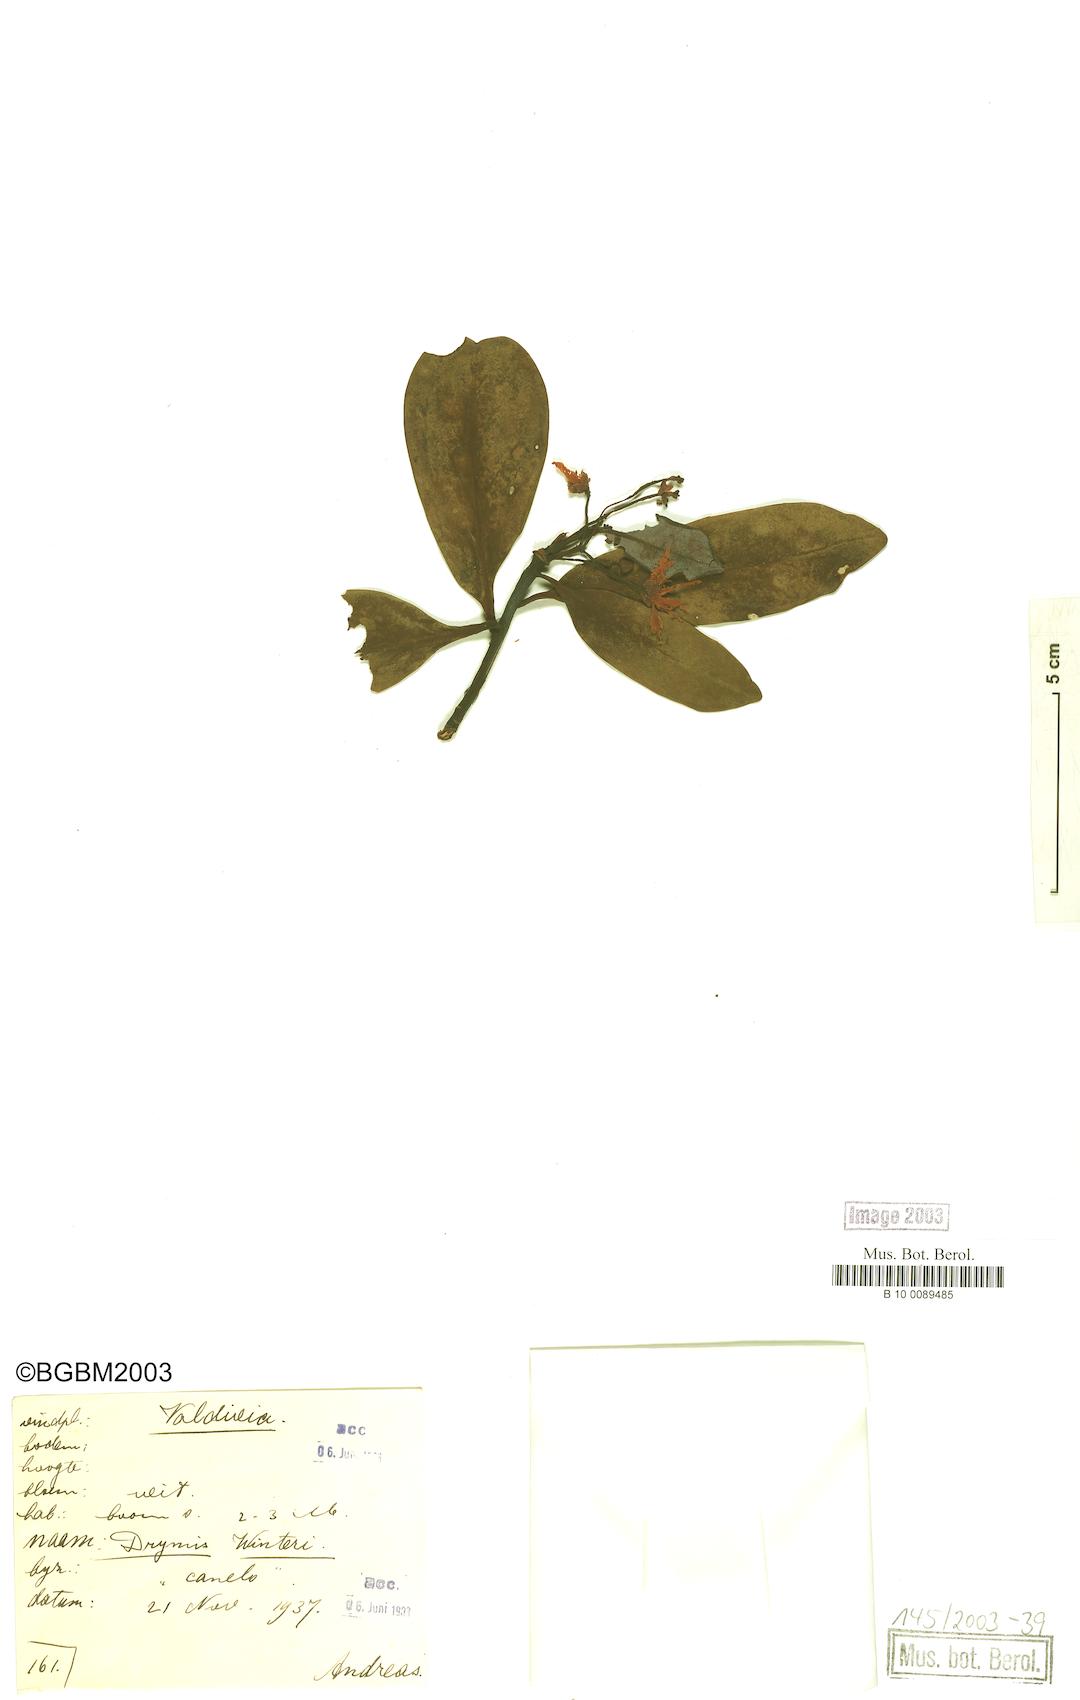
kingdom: Plantae
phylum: Tracheophyta
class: Magnoliopsida
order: Canellales
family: Winteraceae
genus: Drimys
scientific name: Drimys winteri
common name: Winter's-bark
